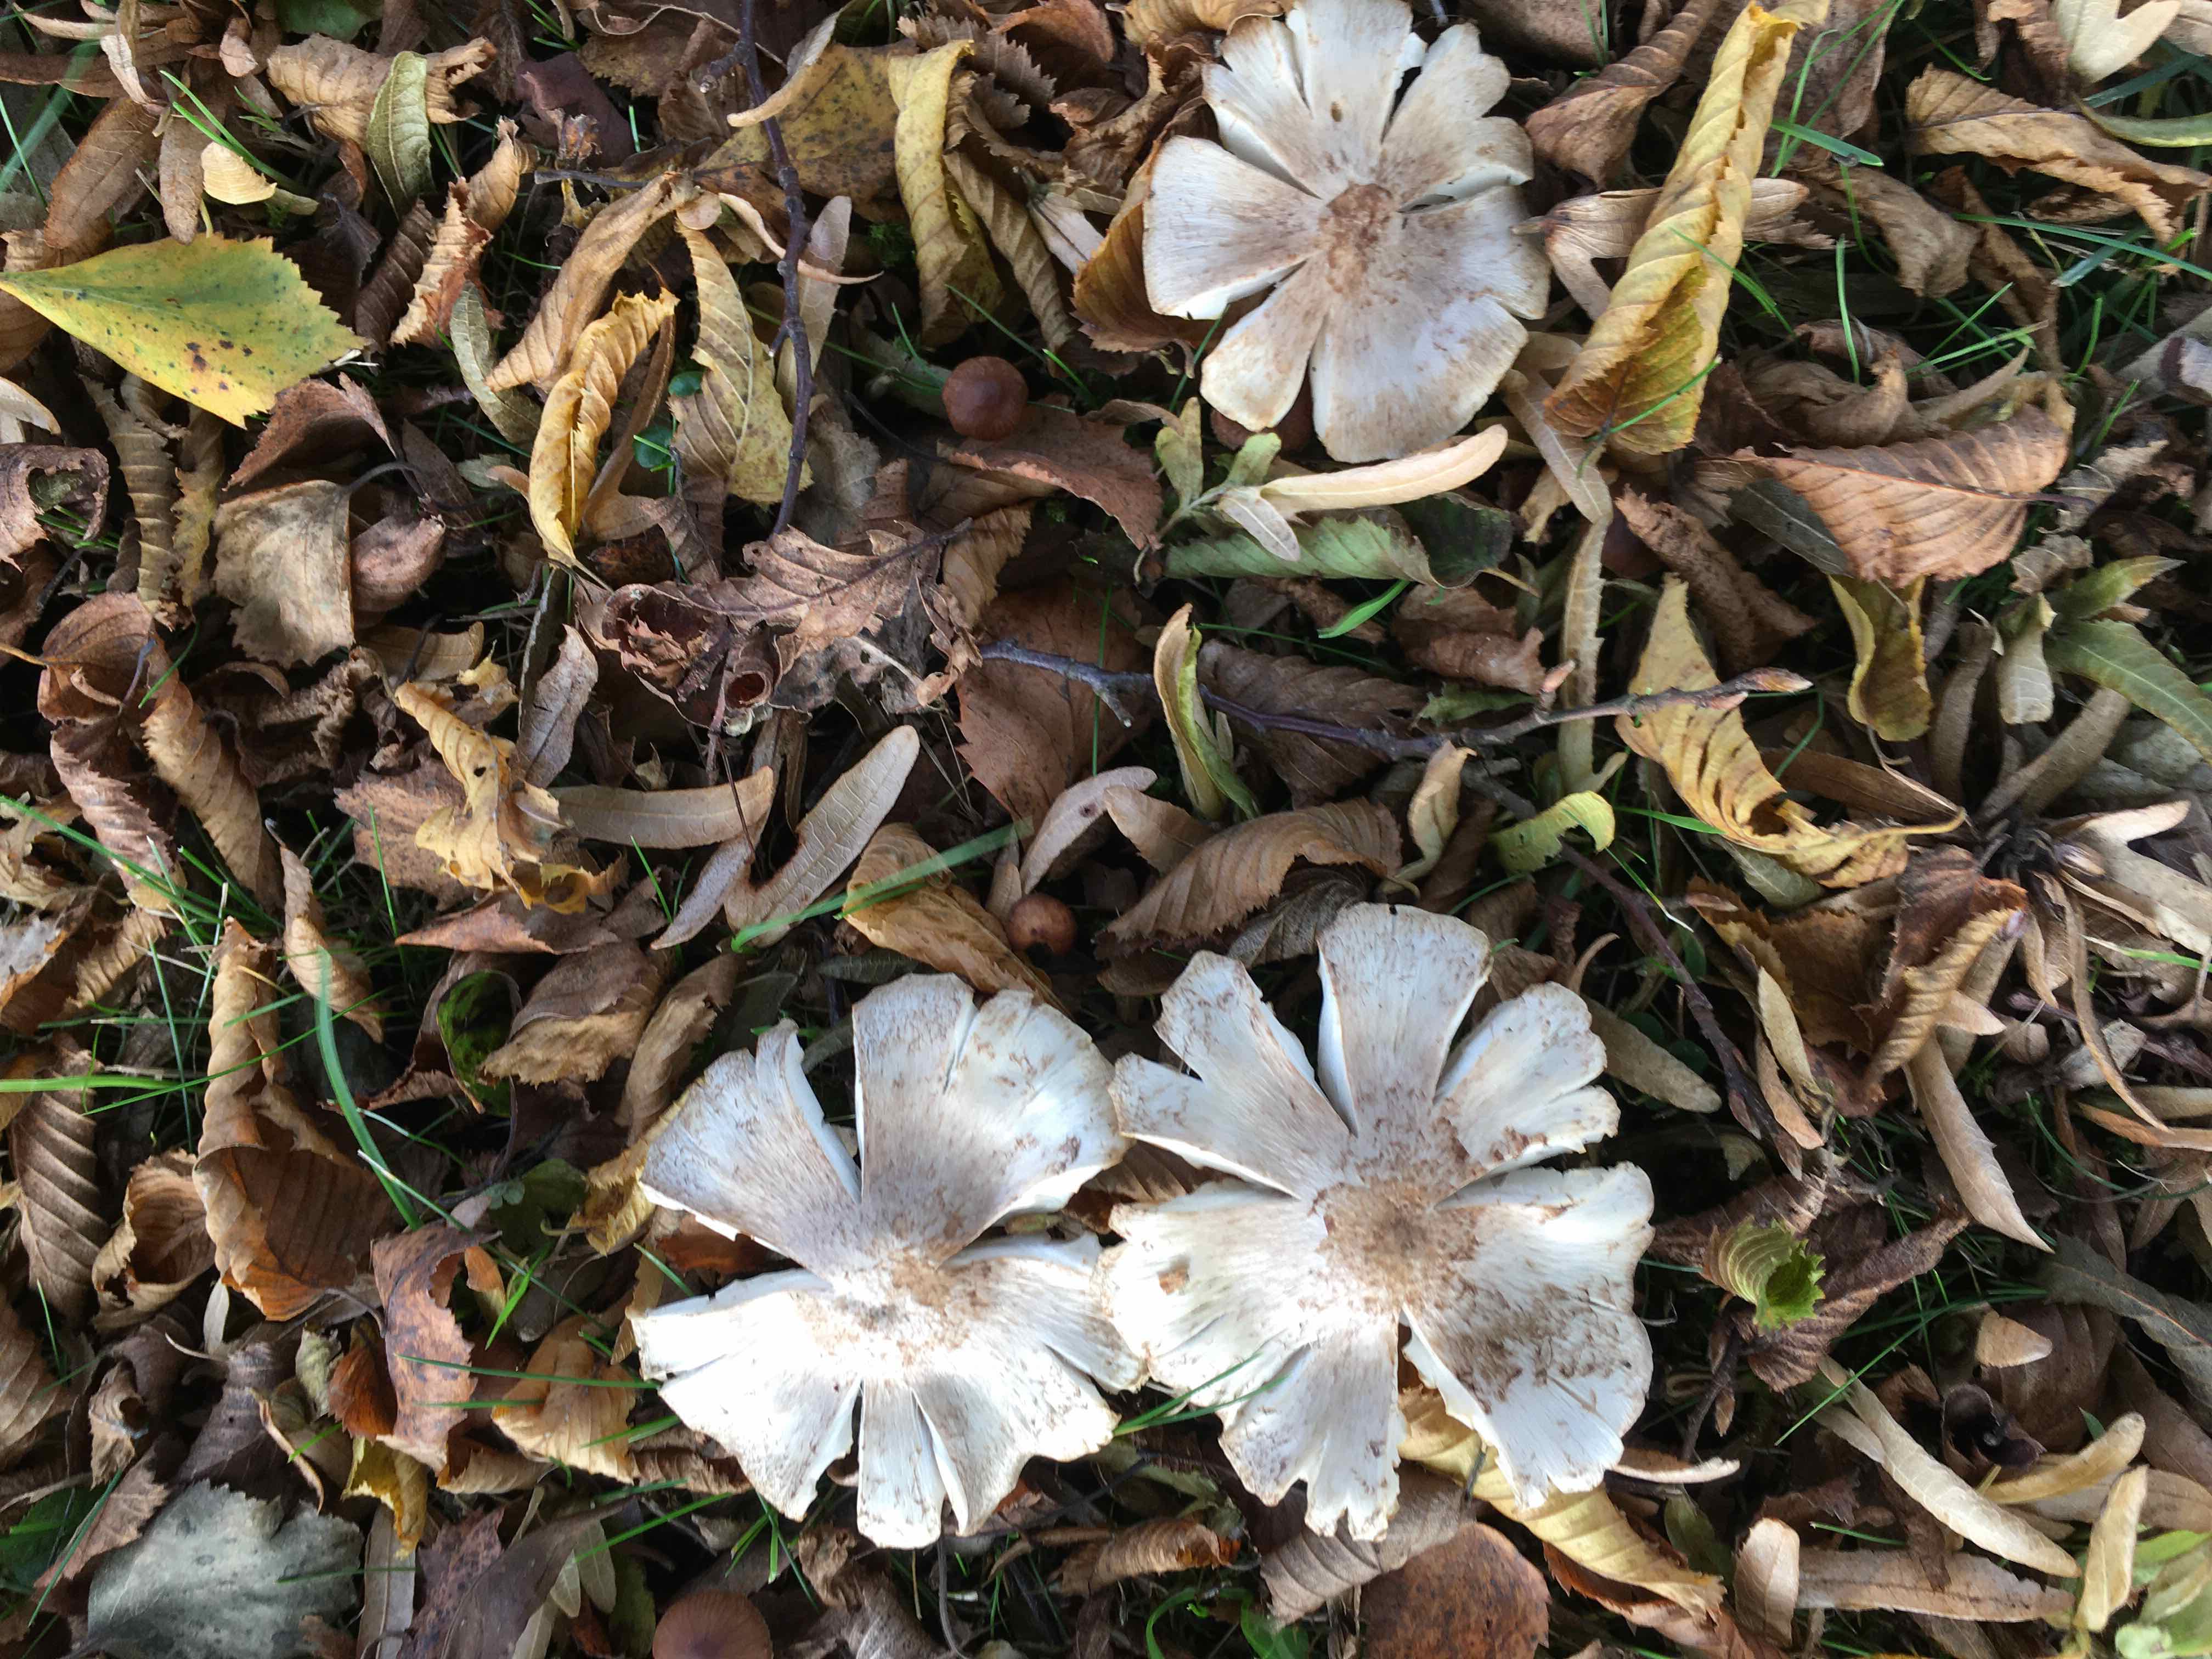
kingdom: Fungi
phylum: Basidiomycota
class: Agaricomycetes
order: Agaricales
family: Tricholomataceae
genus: Tricholoma
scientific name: Tricholoma argyraceum
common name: spids ridderhat
